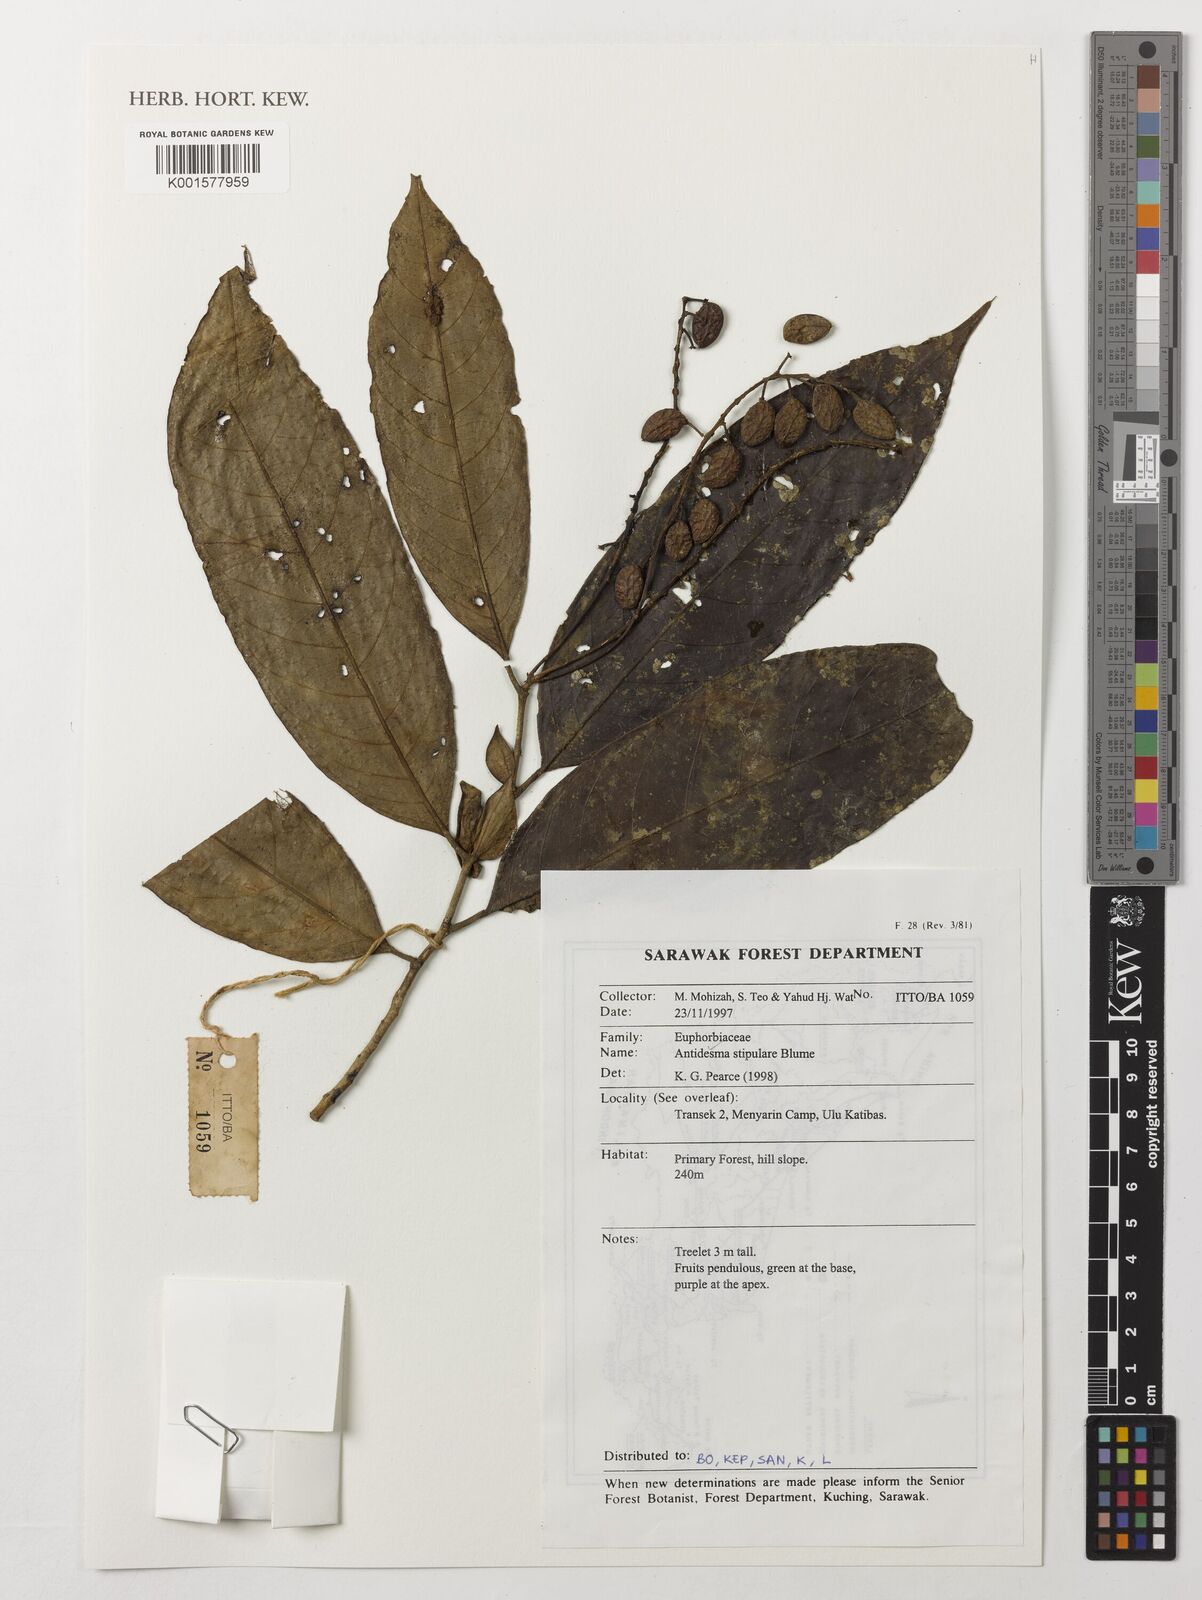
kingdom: Plantae
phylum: Tracheophyta
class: Magnoliopsida
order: Malpighiales
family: Phyllanthaceae
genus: Antidesma
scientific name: Antidesma stipulare
